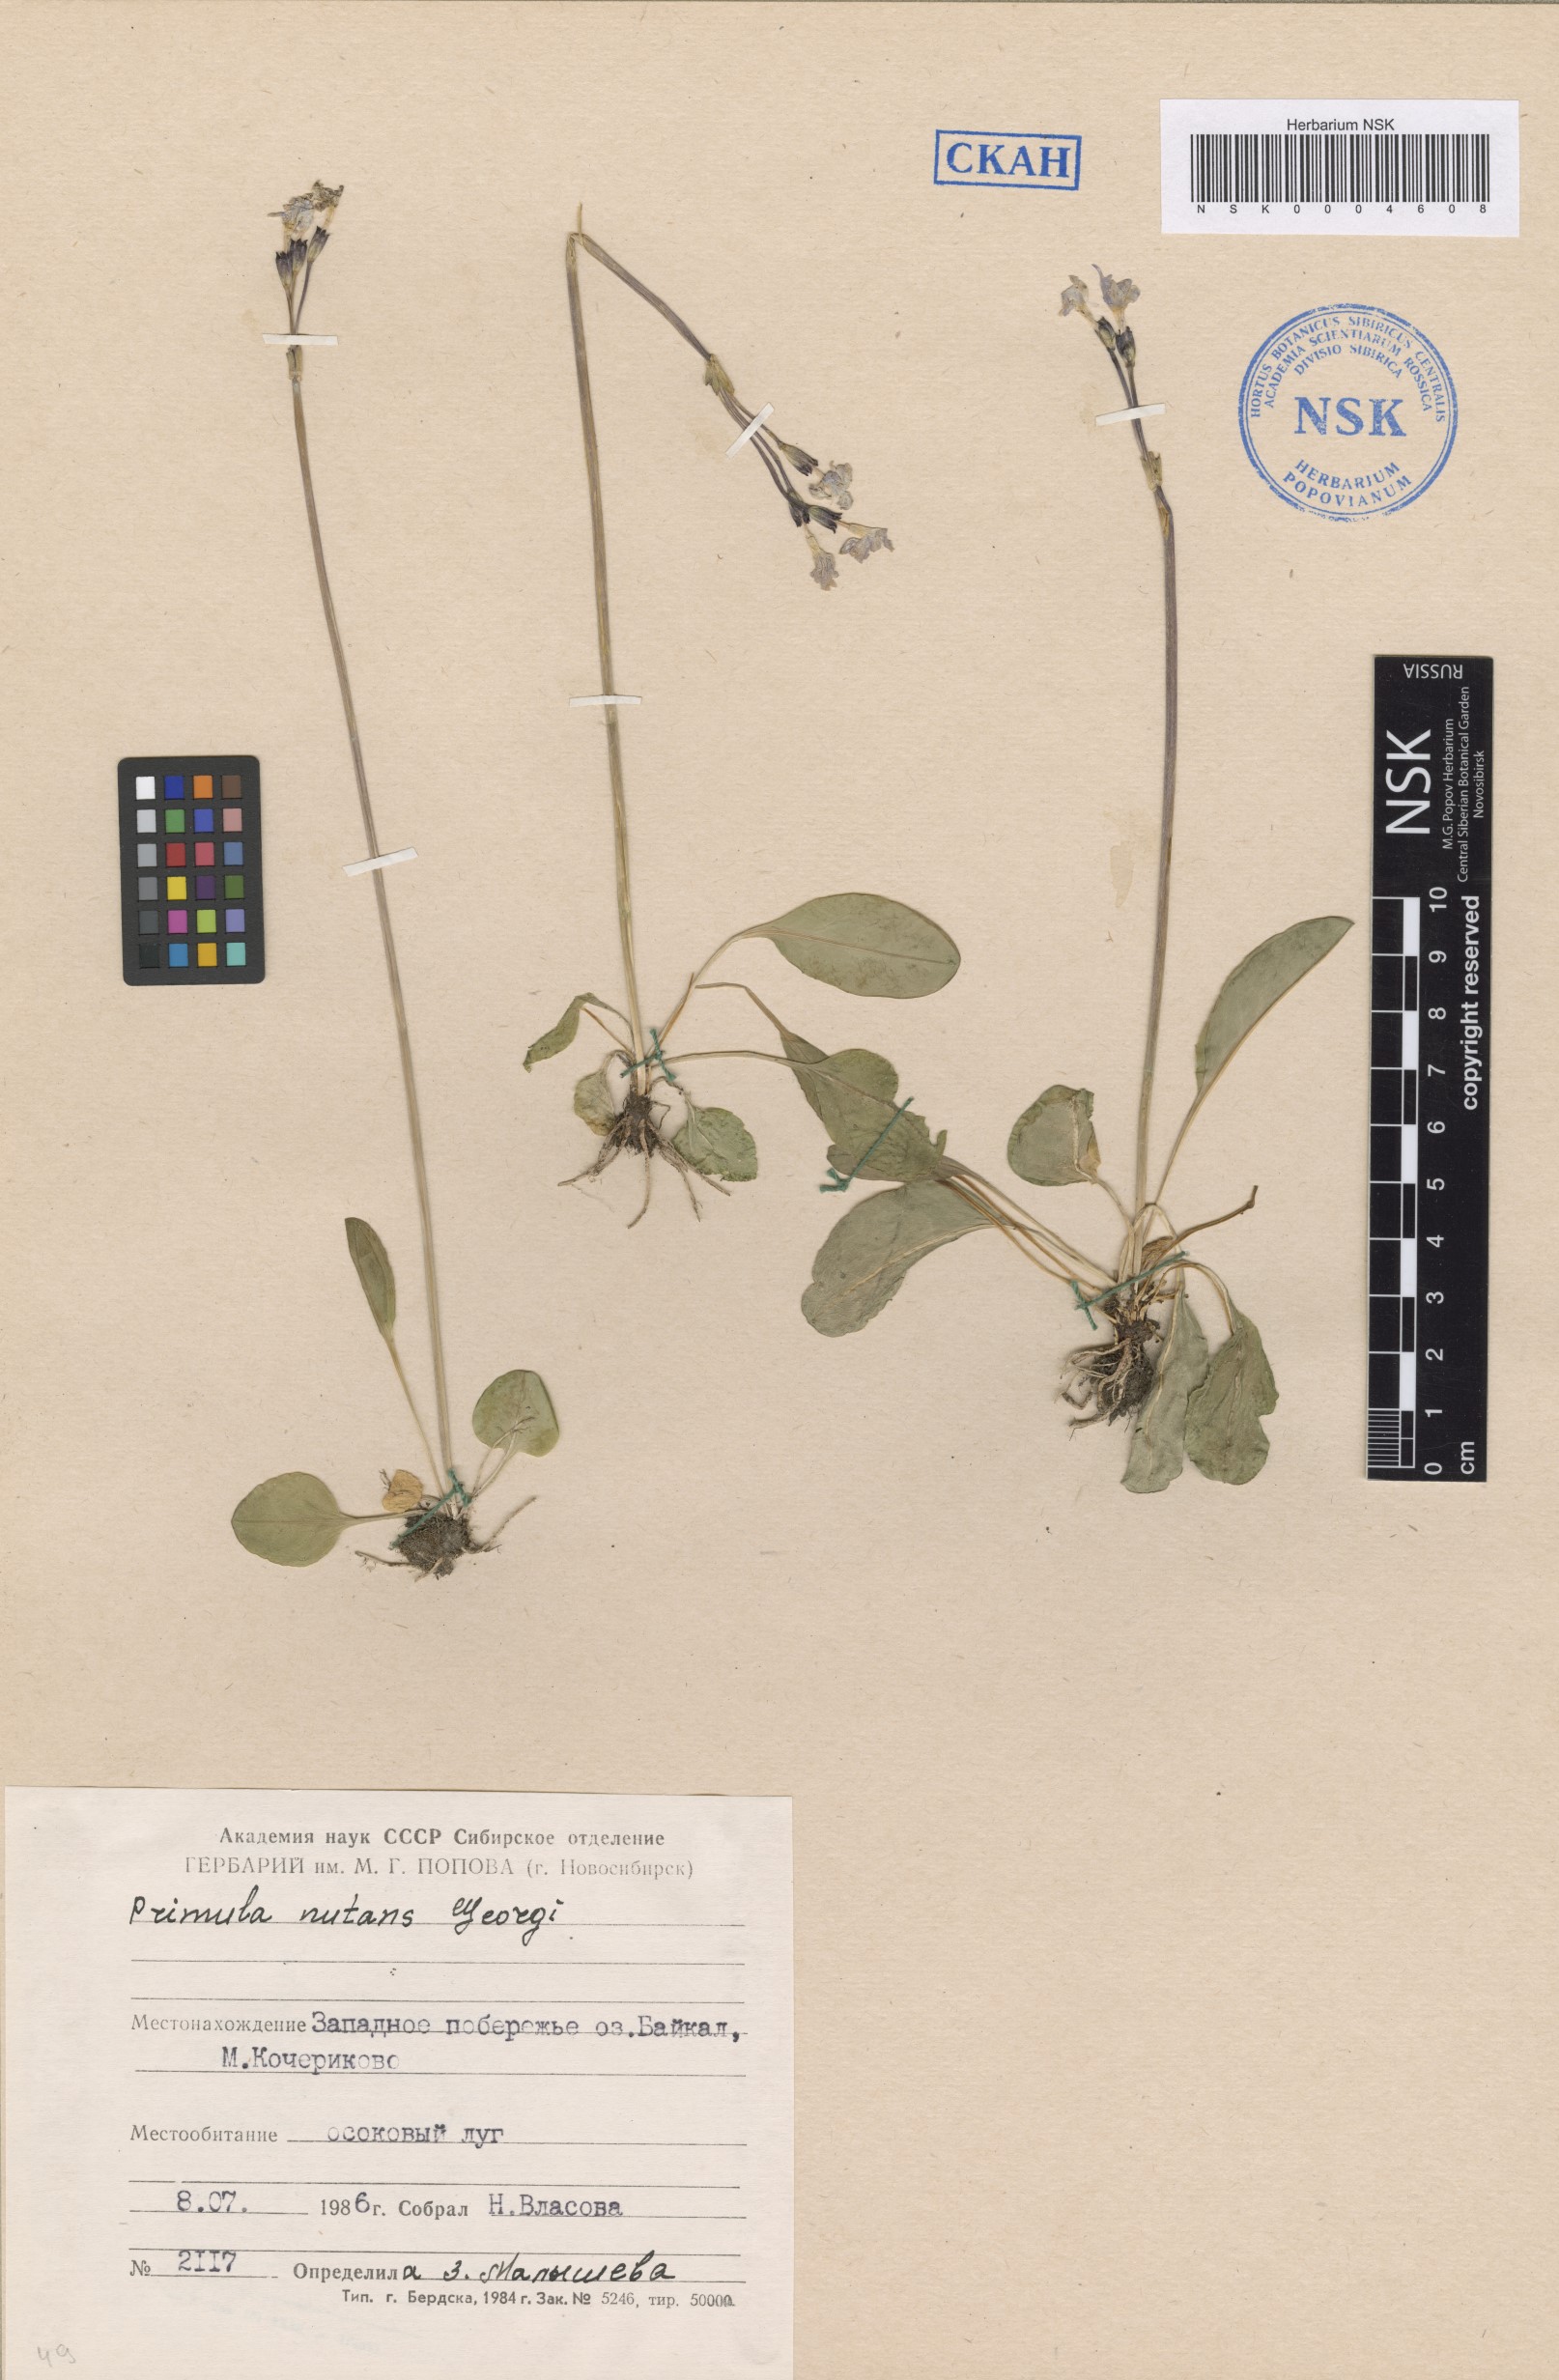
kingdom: Plantae
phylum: Tracheophyta
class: Magnoliopsida
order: Ericales
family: Primulaceae
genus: Primula
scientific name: Primula nutans
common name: Siberian primrose
